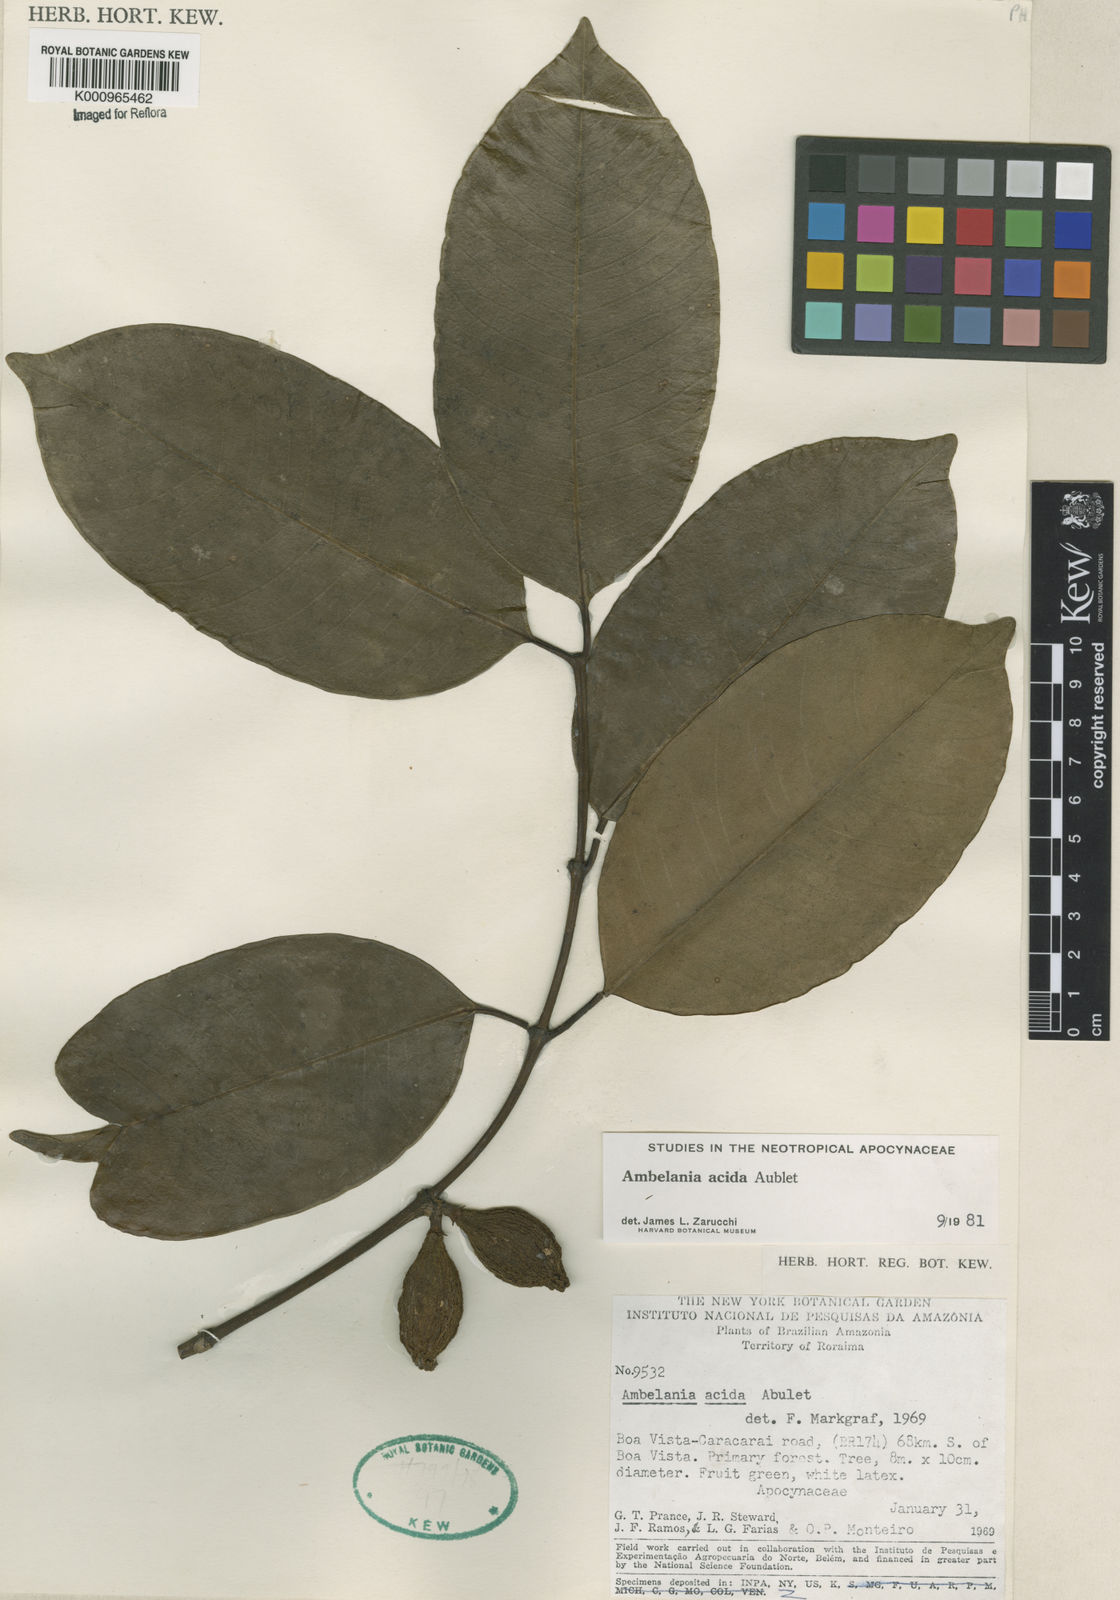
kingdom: Plantae
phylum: Tracheophyta
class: Magnoliopsida
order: Gentianales
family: Apocynaceae
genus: Ambelania
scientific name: Ambelania acida
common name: Bagasse
